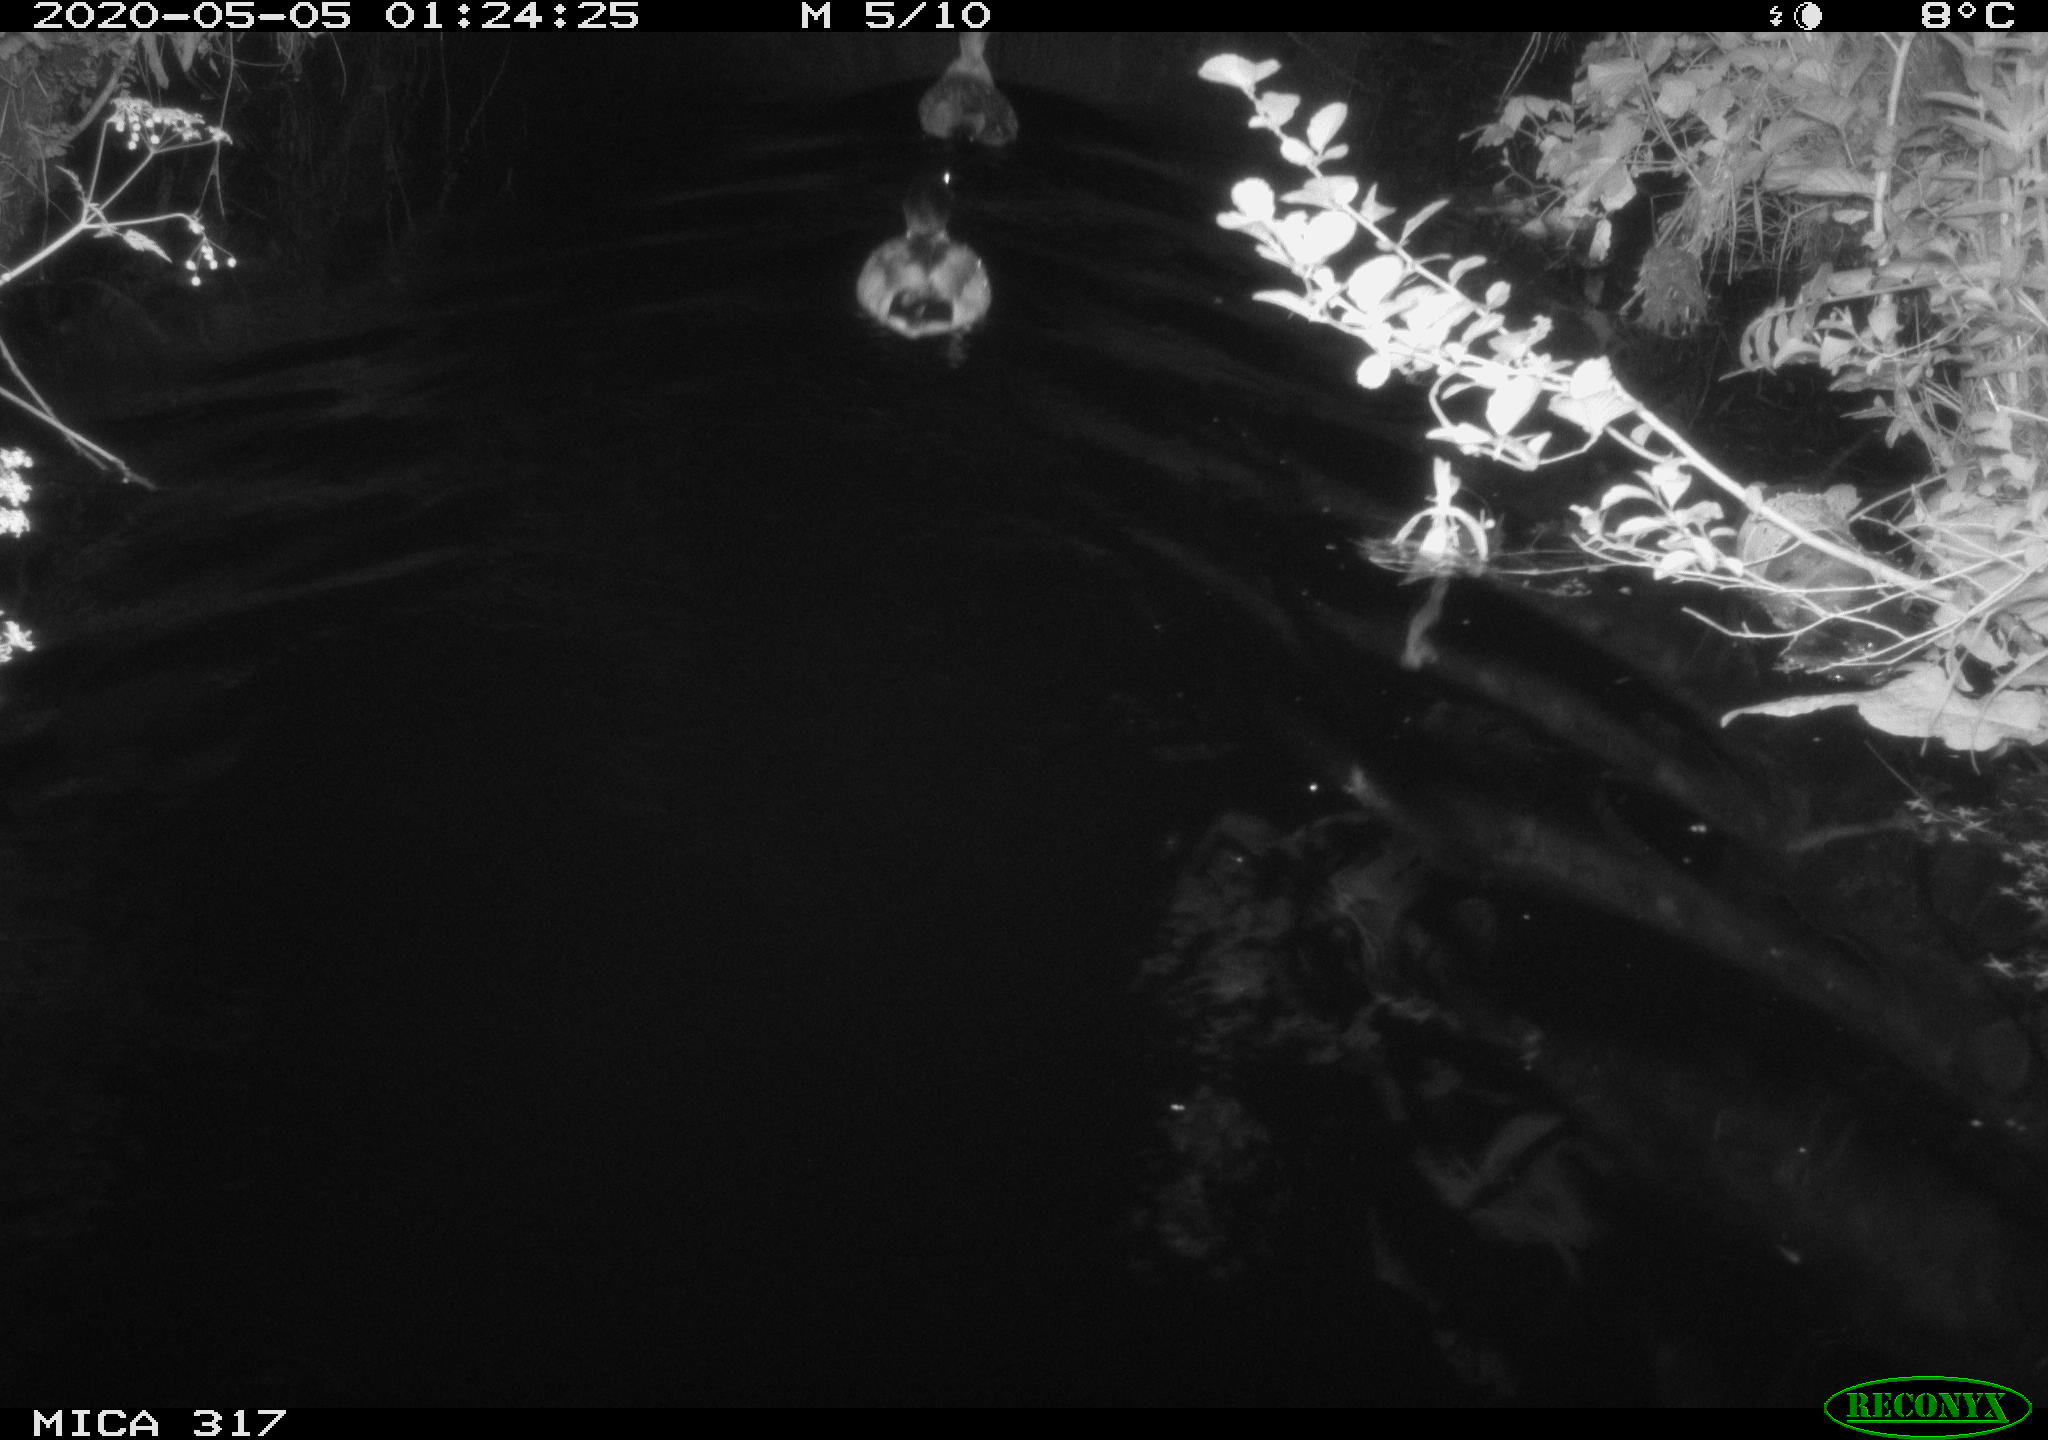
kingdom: Animalia
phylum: Chordata
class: Aves
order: Anseriformes
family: Anatidae
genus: Anas
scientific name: Anas platyrhynchos
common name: Mallard
